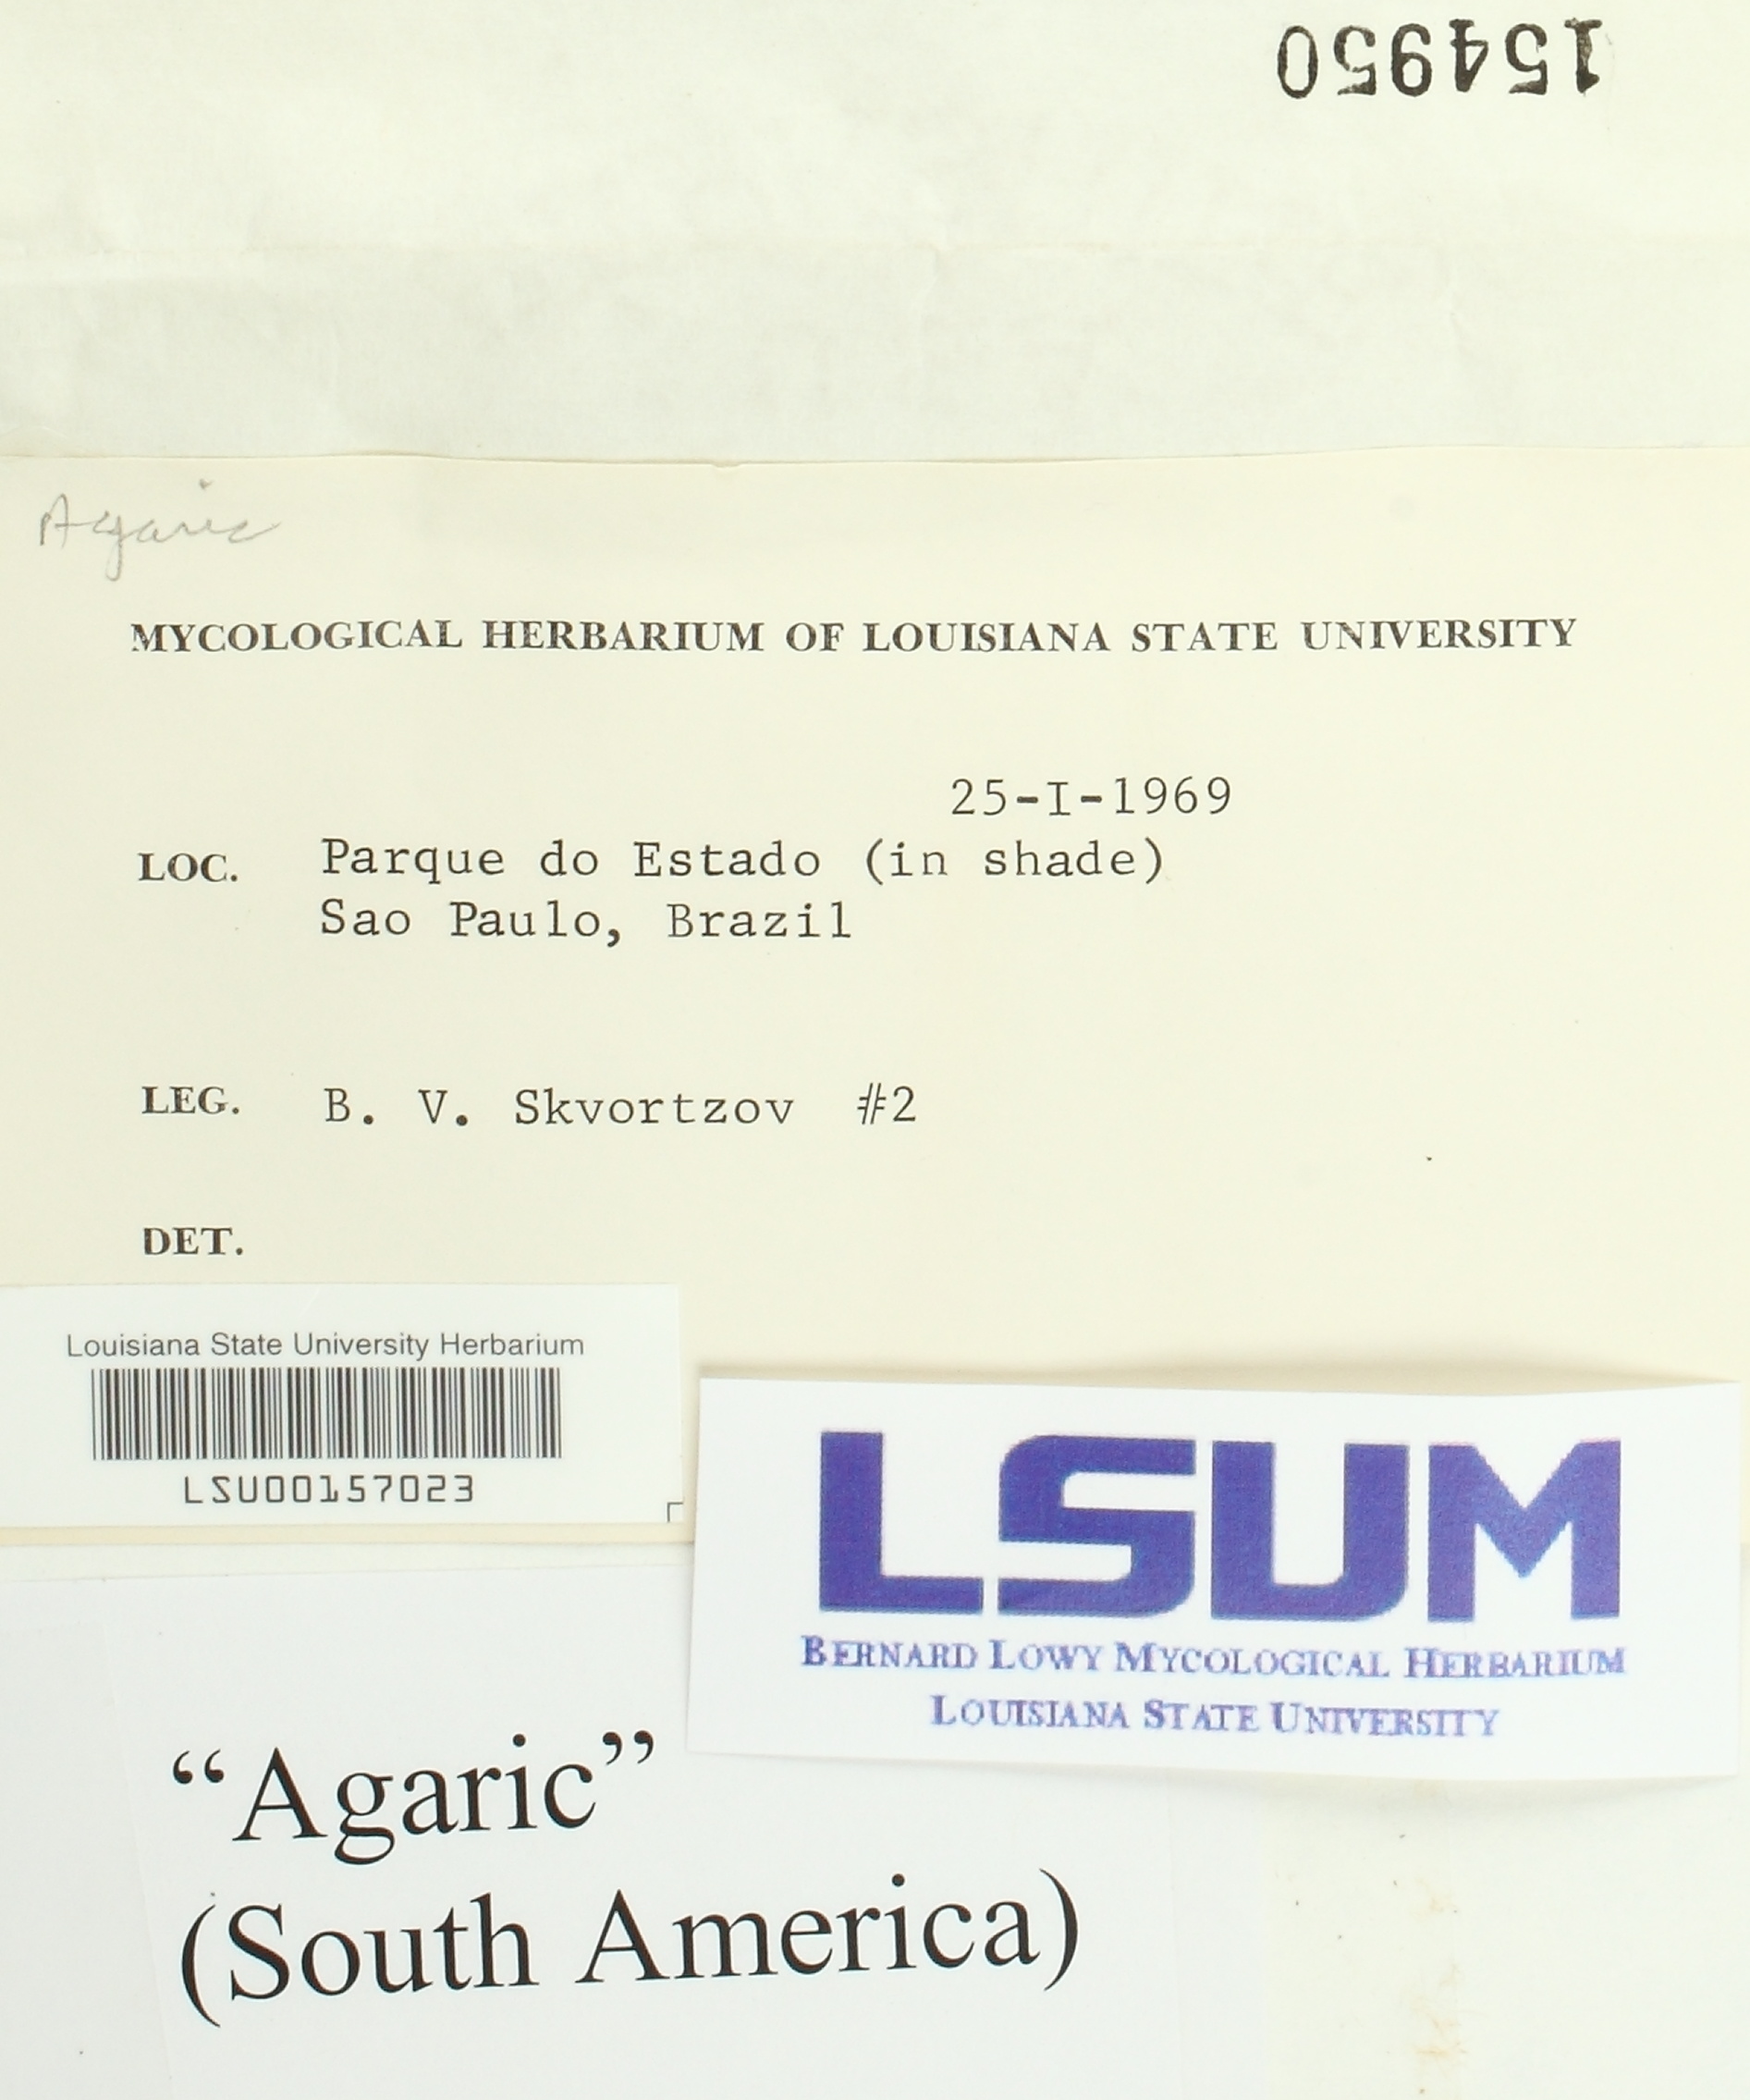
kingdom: Fungi
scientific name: Fungi
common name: Fungi
